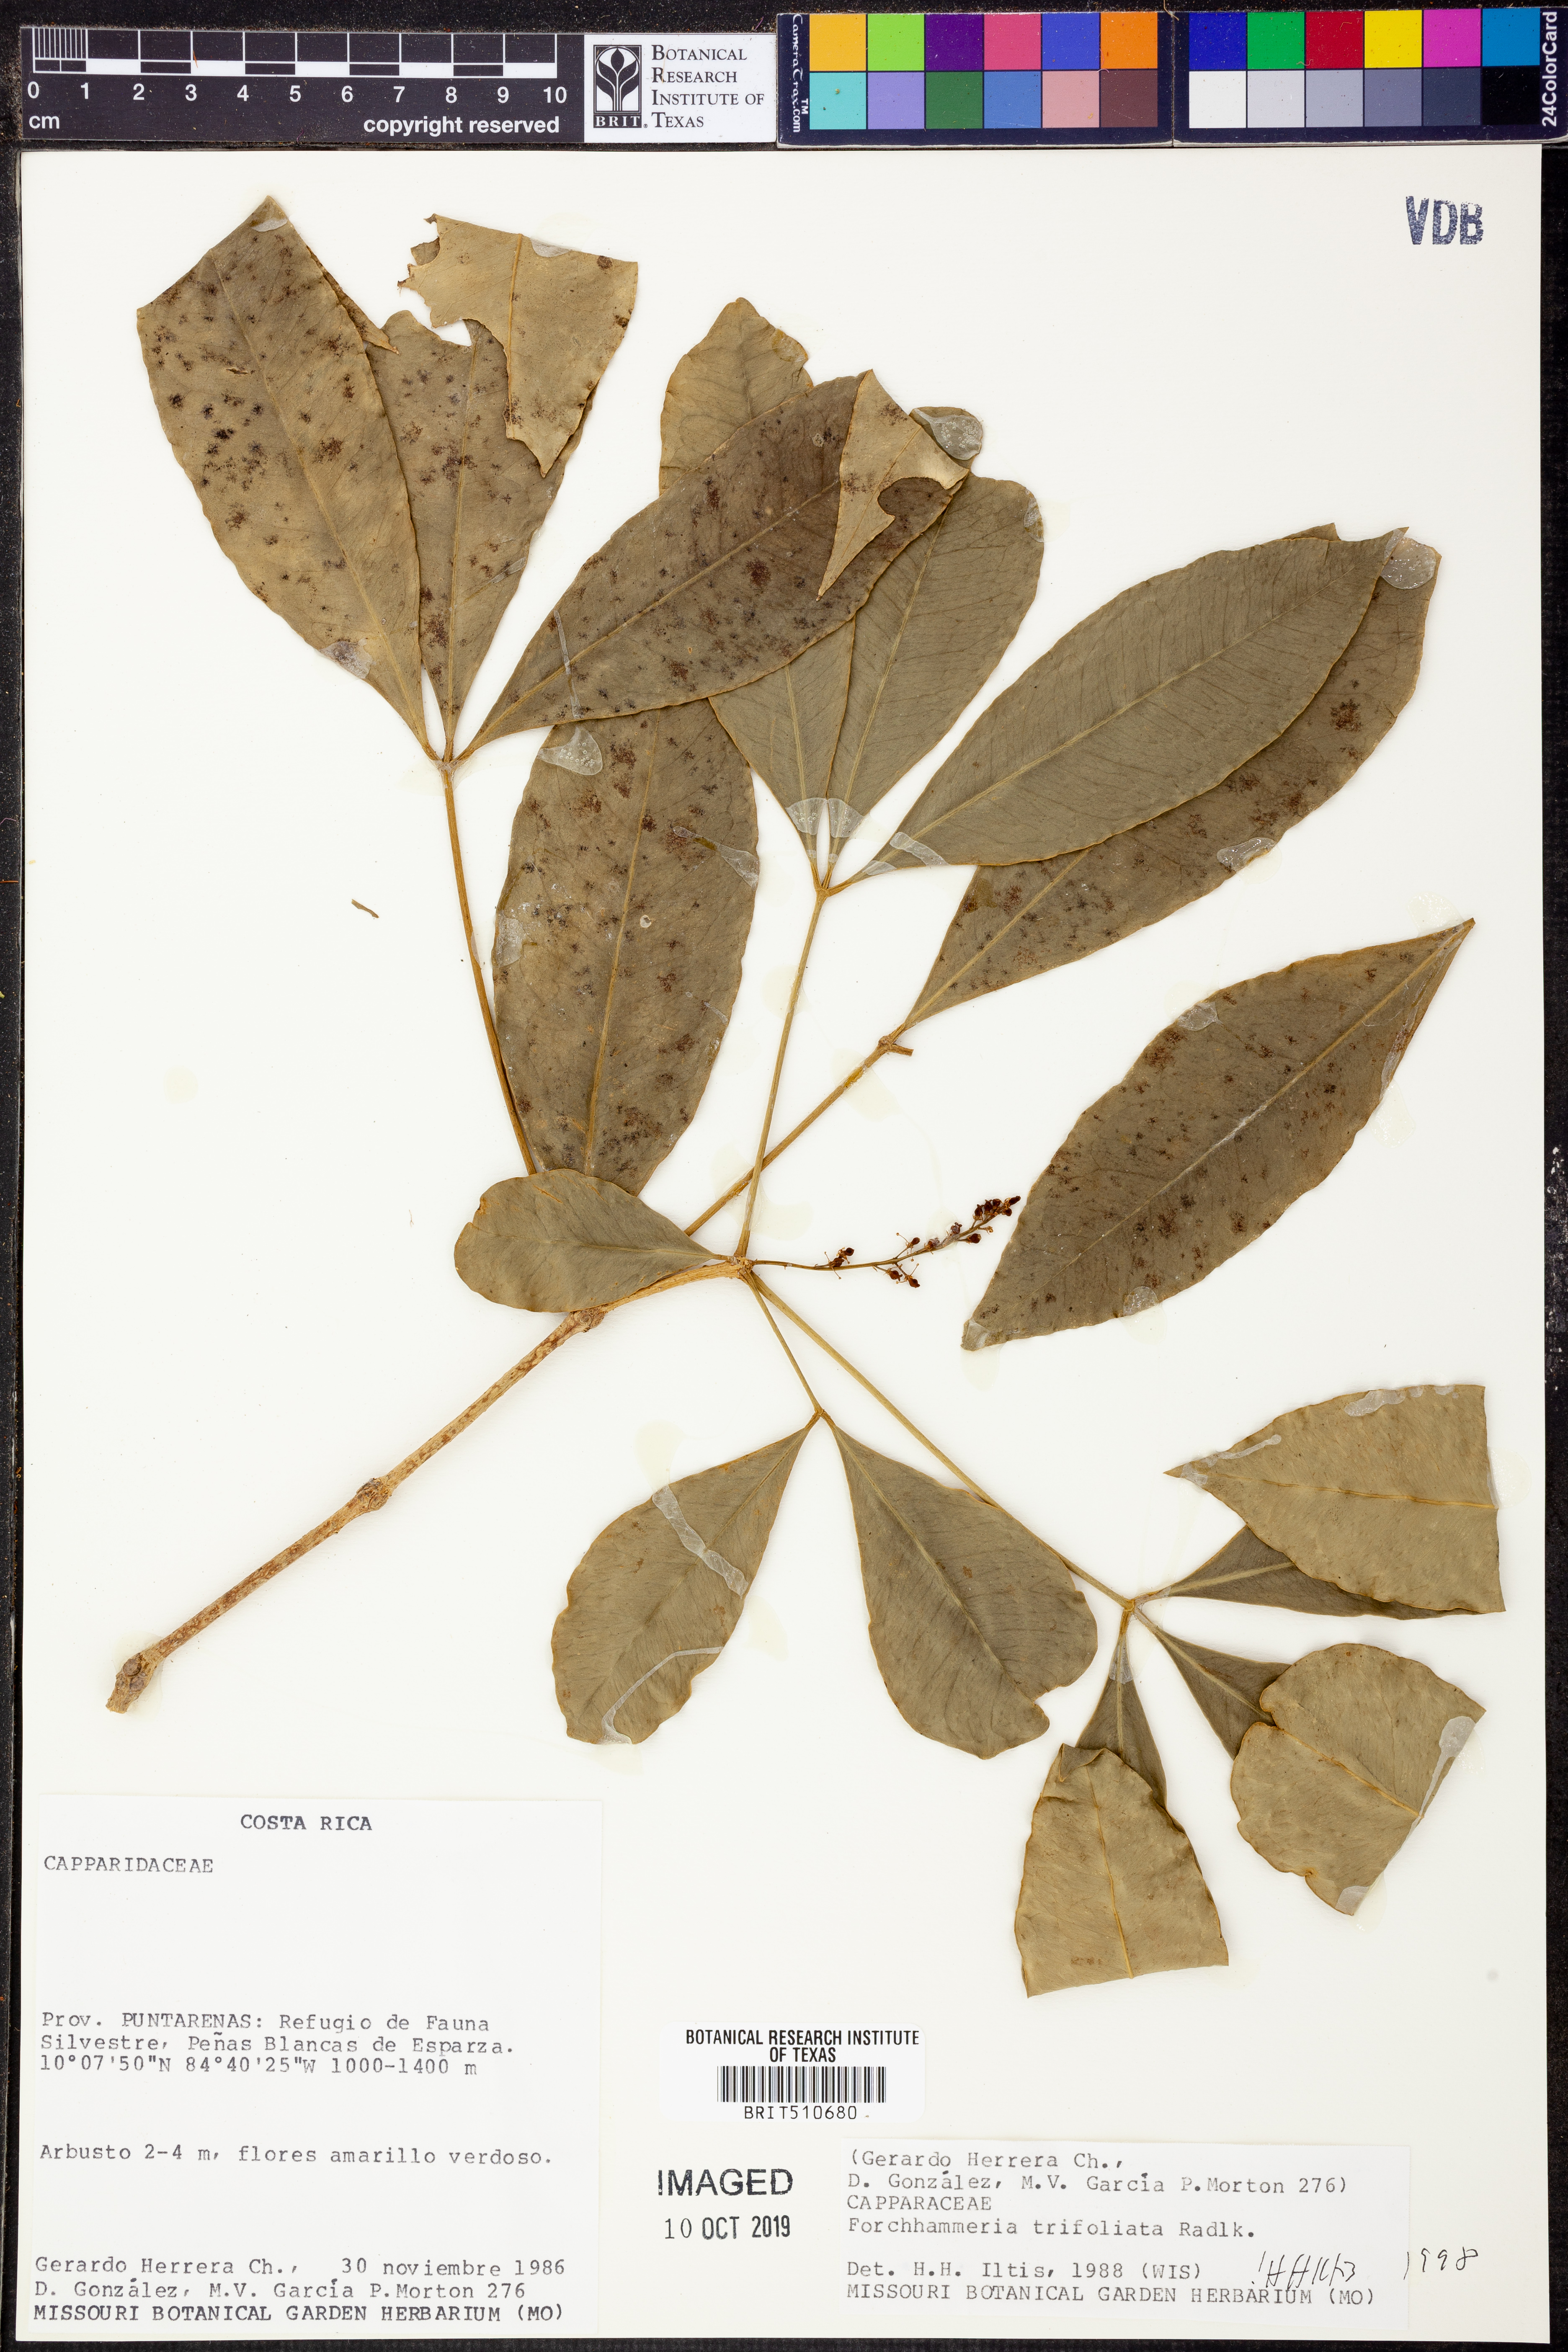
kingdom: Plantae
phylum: Tracheophyta
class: Magnoliopsida
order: Brassicales
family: Stixaceae
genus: Forchhammeria
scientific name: Forchhammeria trifoliata
